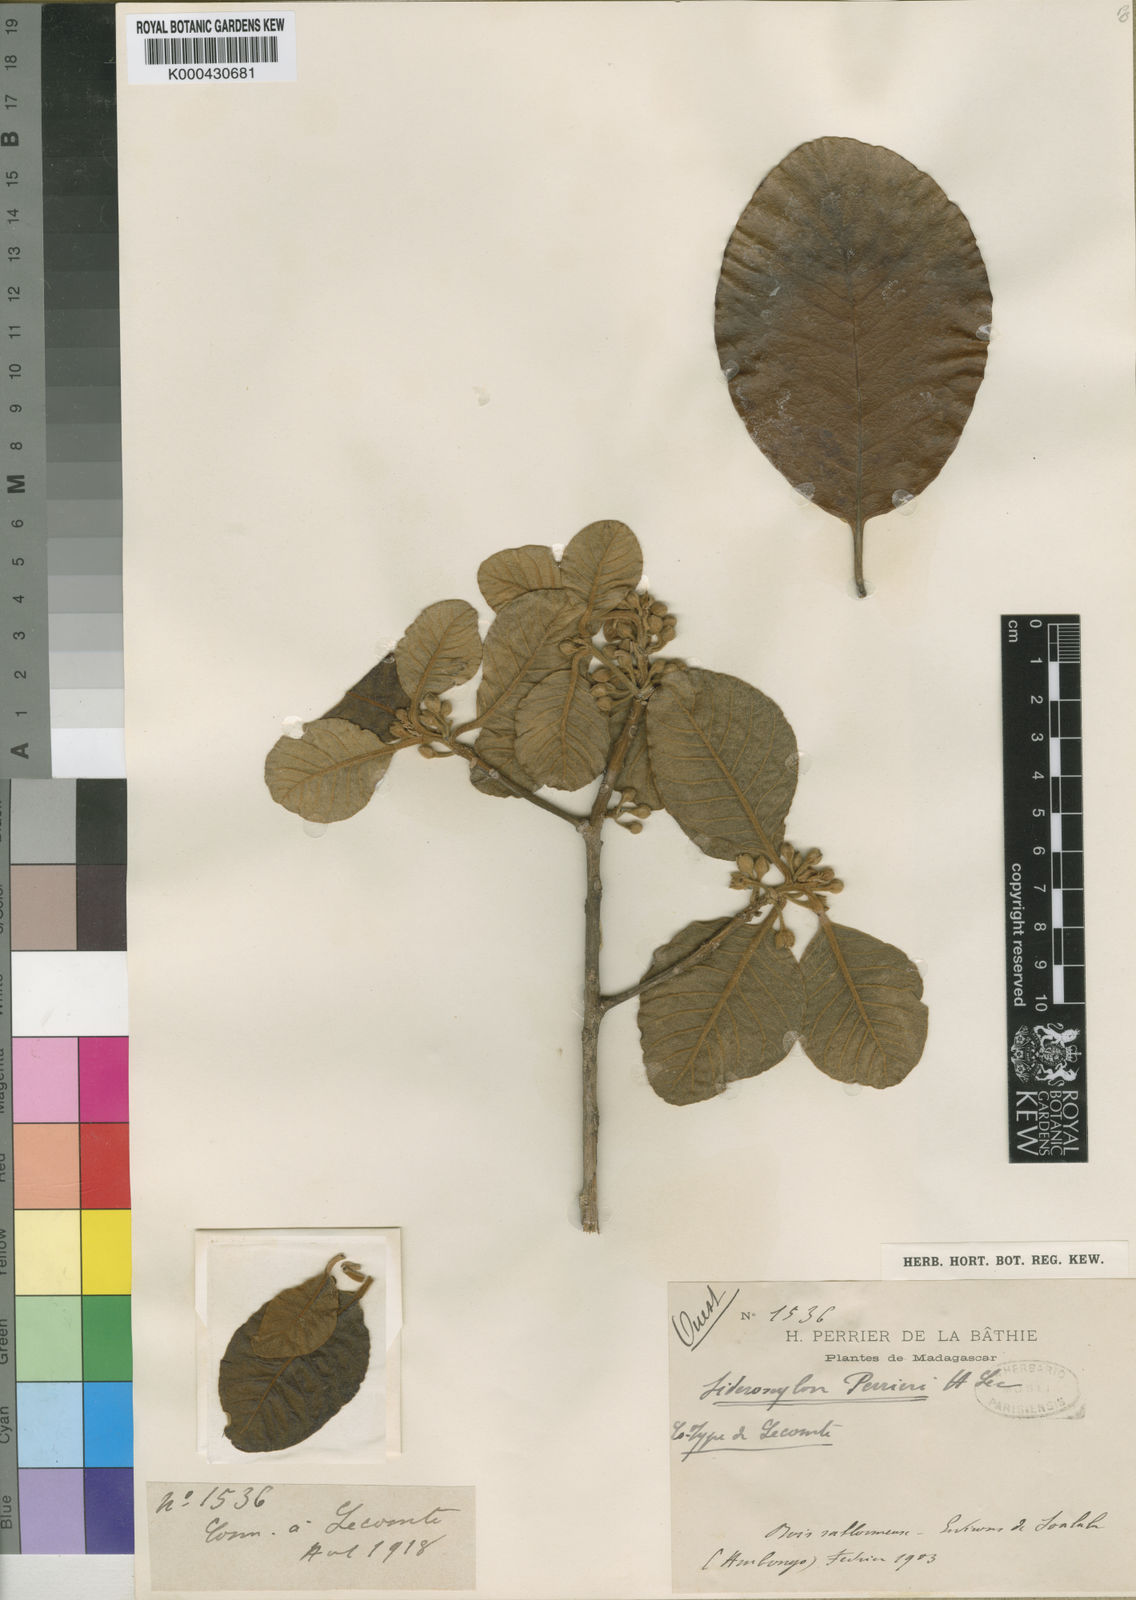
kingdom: Plantae
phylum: Tracheophyta
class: Magnoliopsida
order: Ericales
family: Sapotaceae
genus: Capurodendron
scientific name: Capurodendron
